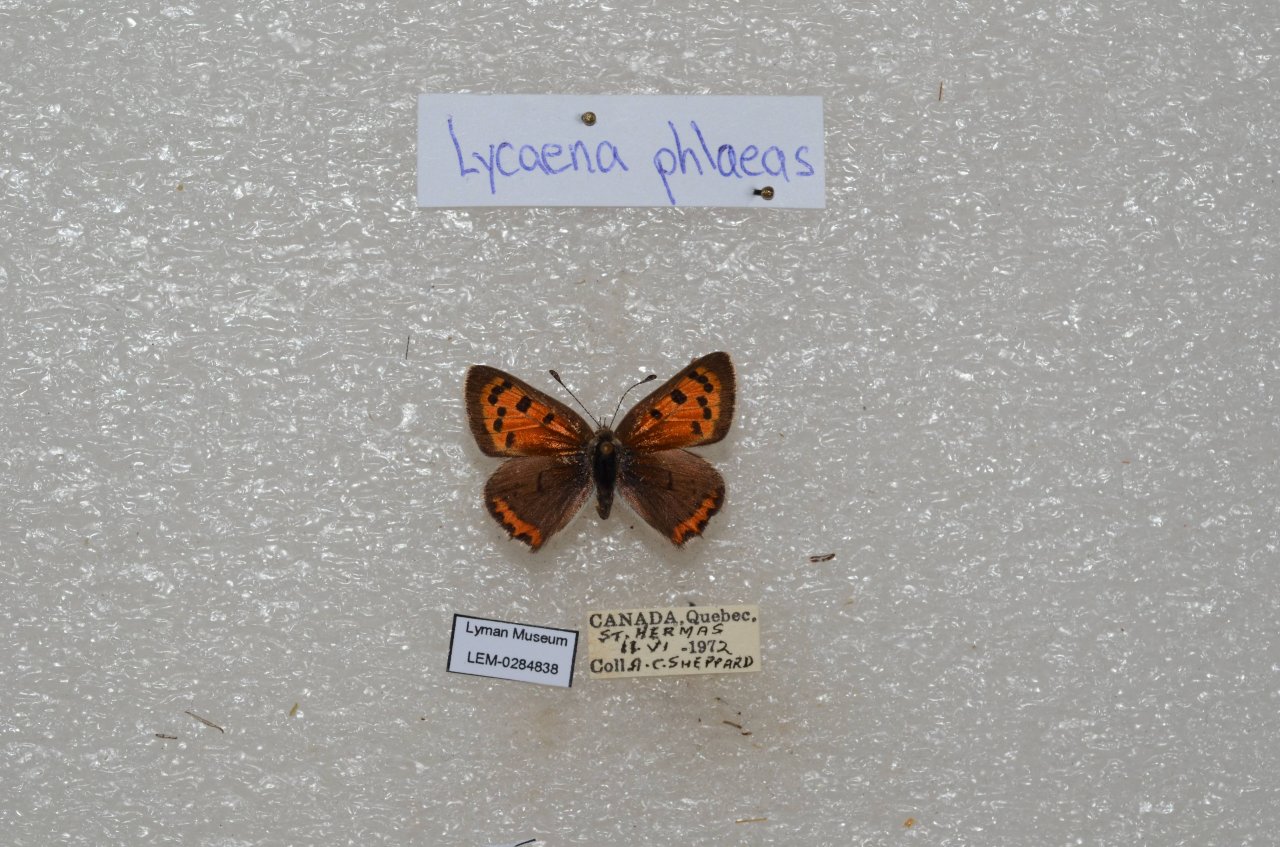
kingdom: Animalia
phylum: Arthropoda
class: Insecta
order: Lepidoptera
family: Lycaenidae
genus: Lycaena
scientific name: Lycaena phlaeas
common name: American Copper
